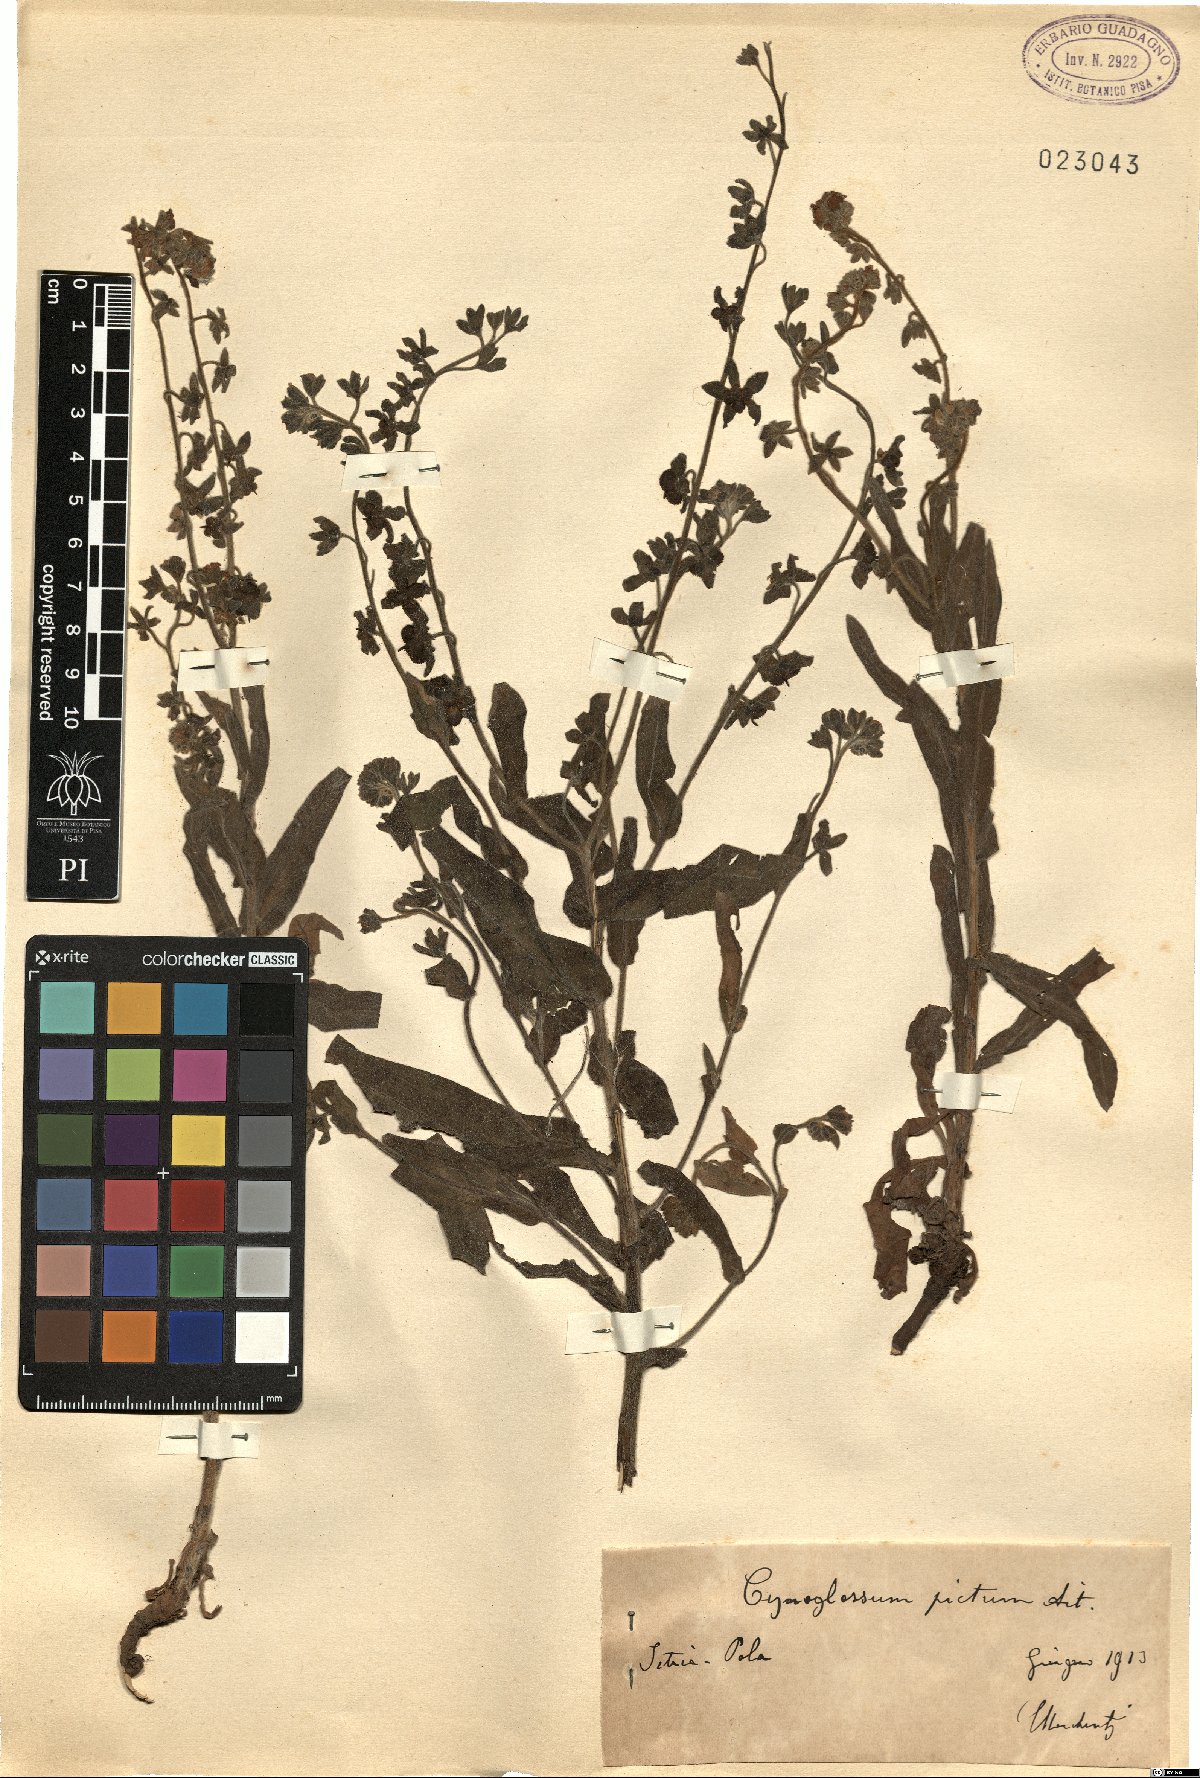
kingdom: Plantae
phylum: Tracheophyta
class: Magnoliopsida
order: Boraginales
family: Boraginaceae
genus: Cynoglossum
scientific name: Cynoglossum creticum
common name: Blue hound's tongue
